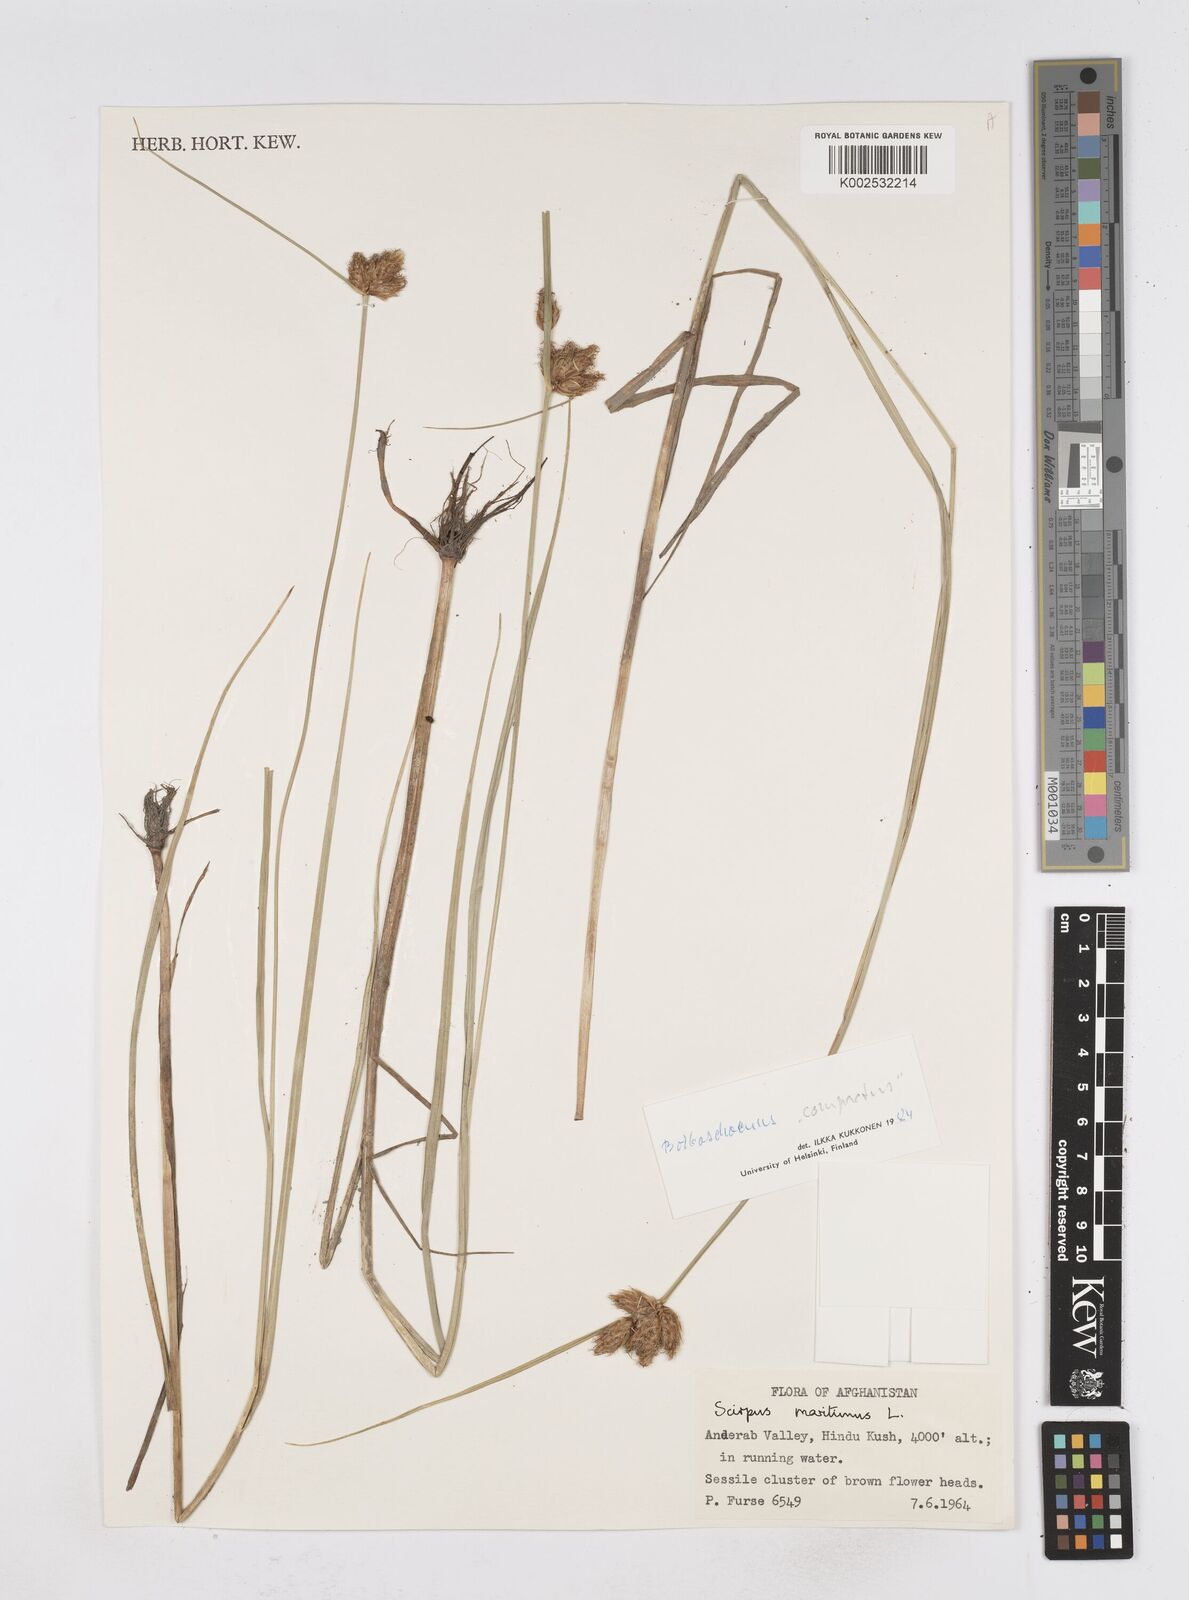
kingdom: Plantae
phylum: Tracheophyta
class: Liliopsida
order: Poales
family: Cyperaceae
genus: Bolboschoenus
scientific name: Bolboschoenus maritimus
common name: Sea club-rush
